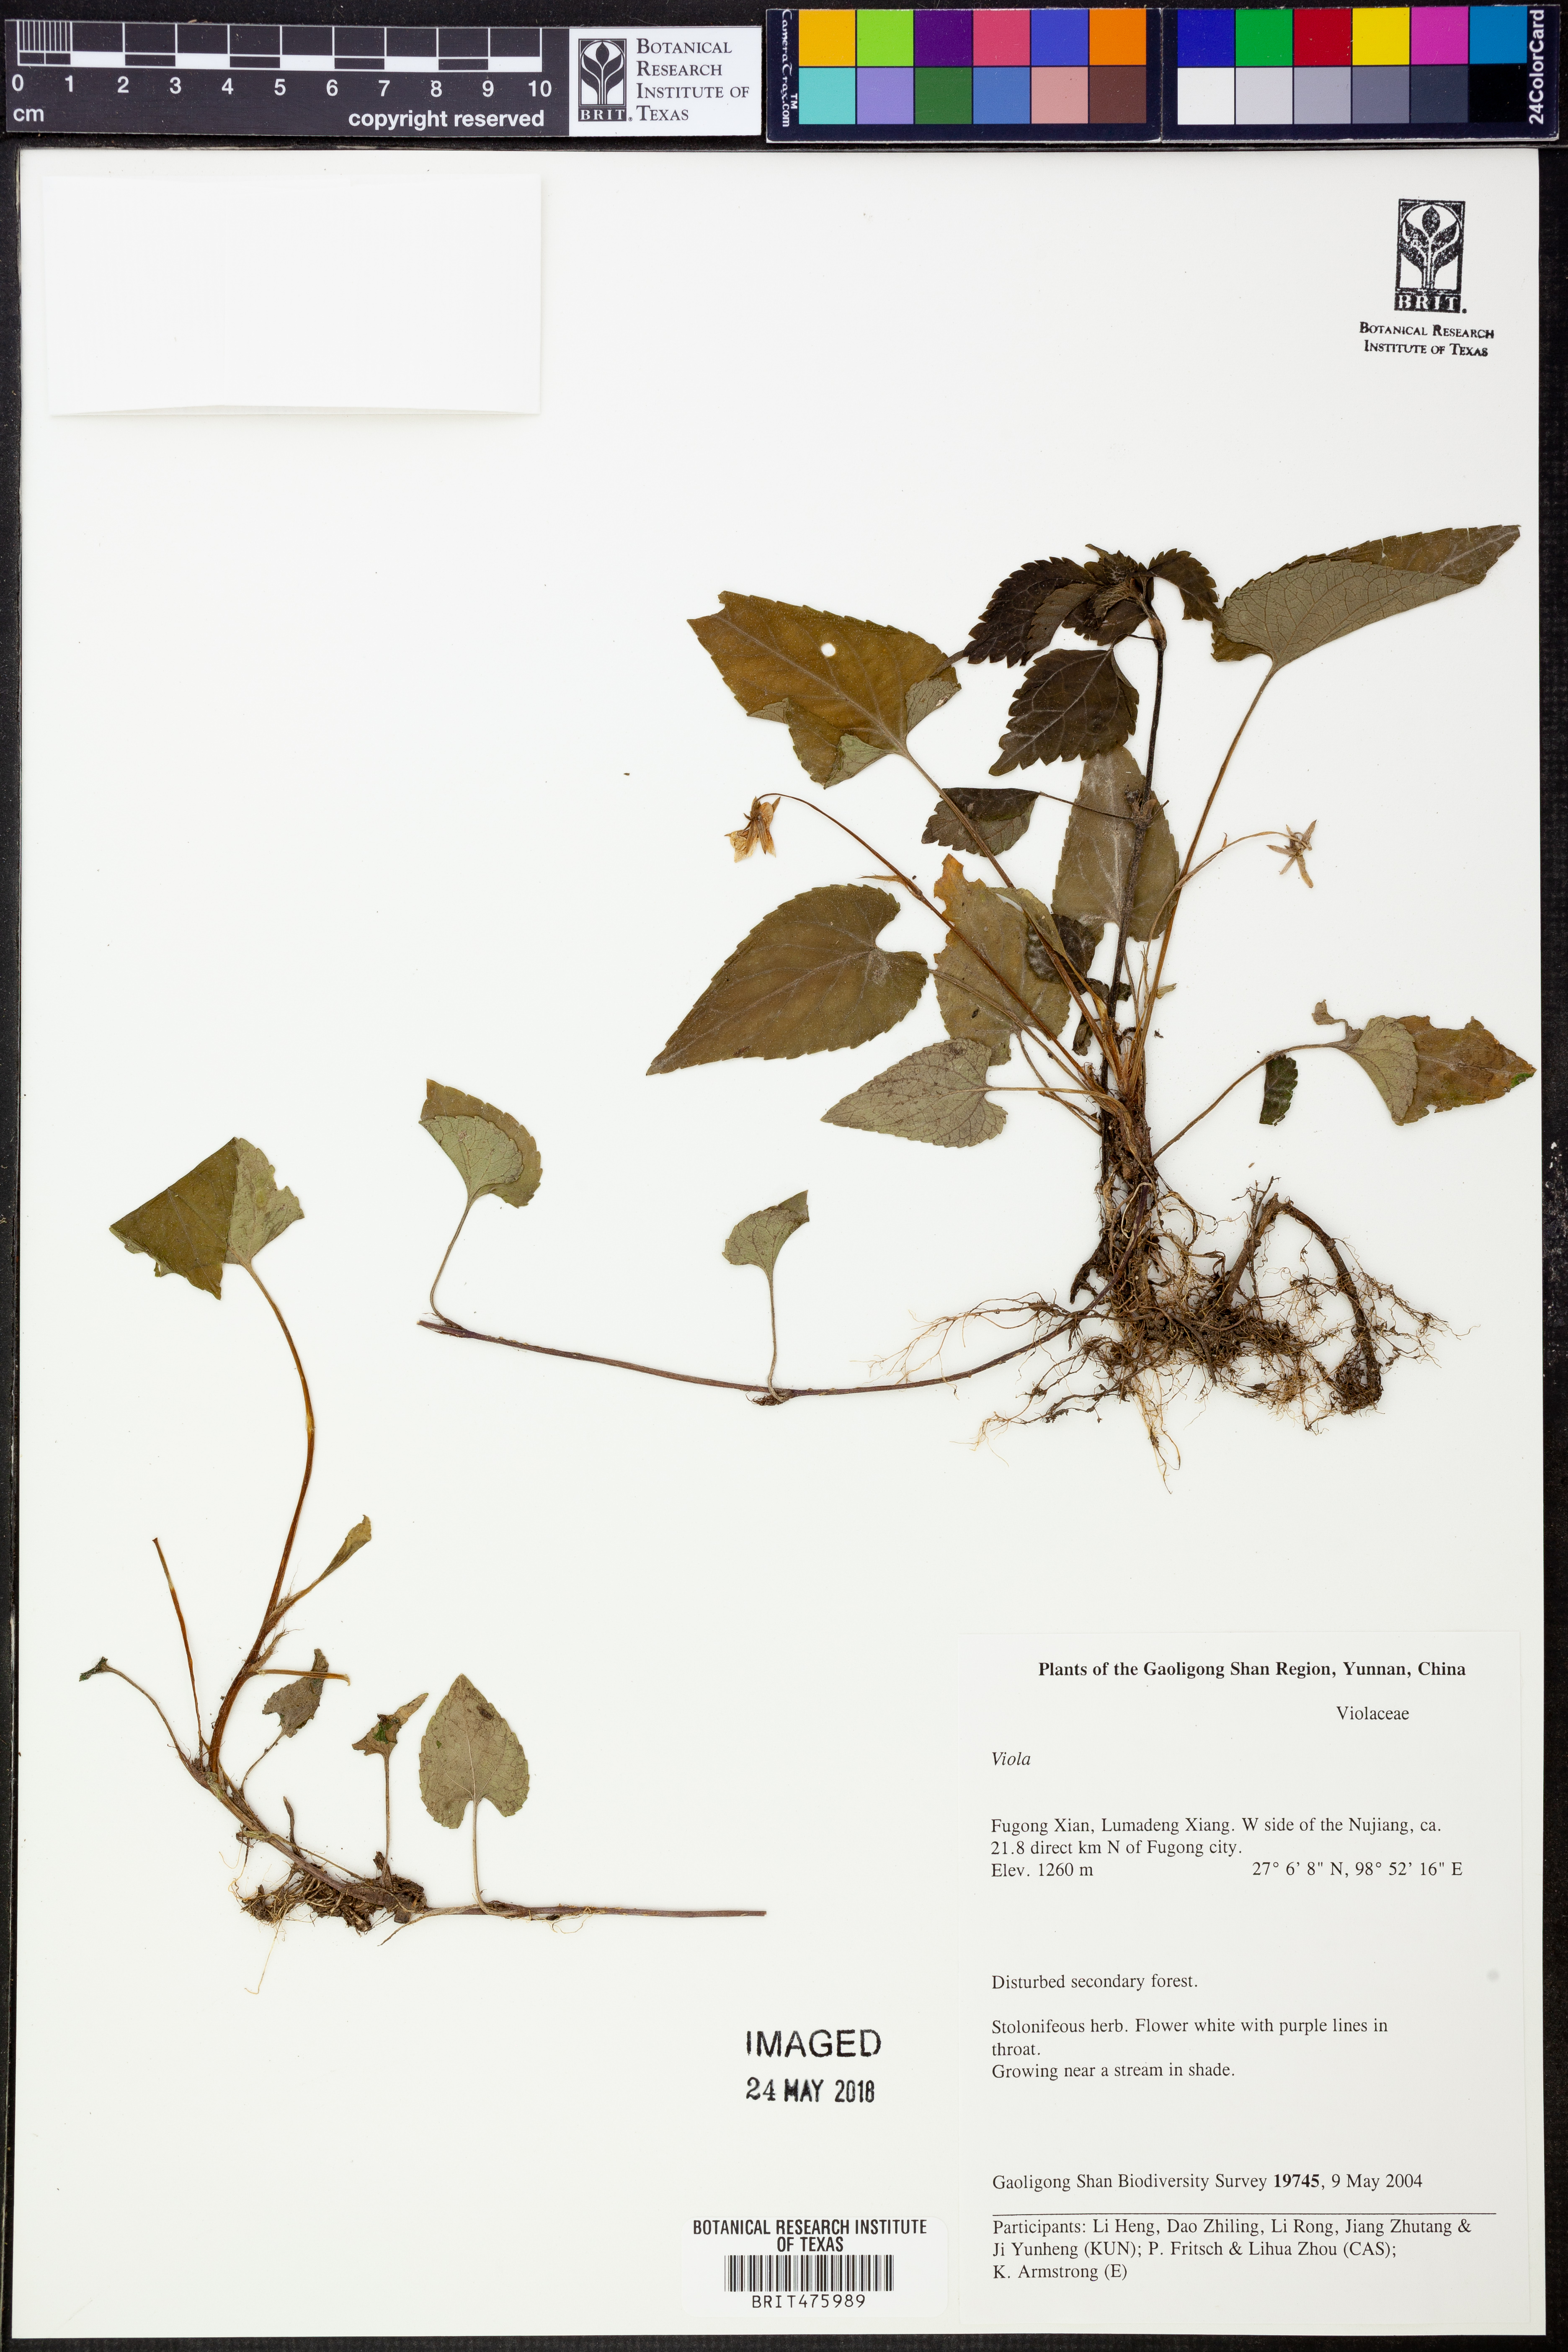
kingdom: Plantae
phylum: Tracheophyta
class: Magnoliopsida
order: Malpighiales
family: Violaceae
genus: Viola
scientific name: Viola
